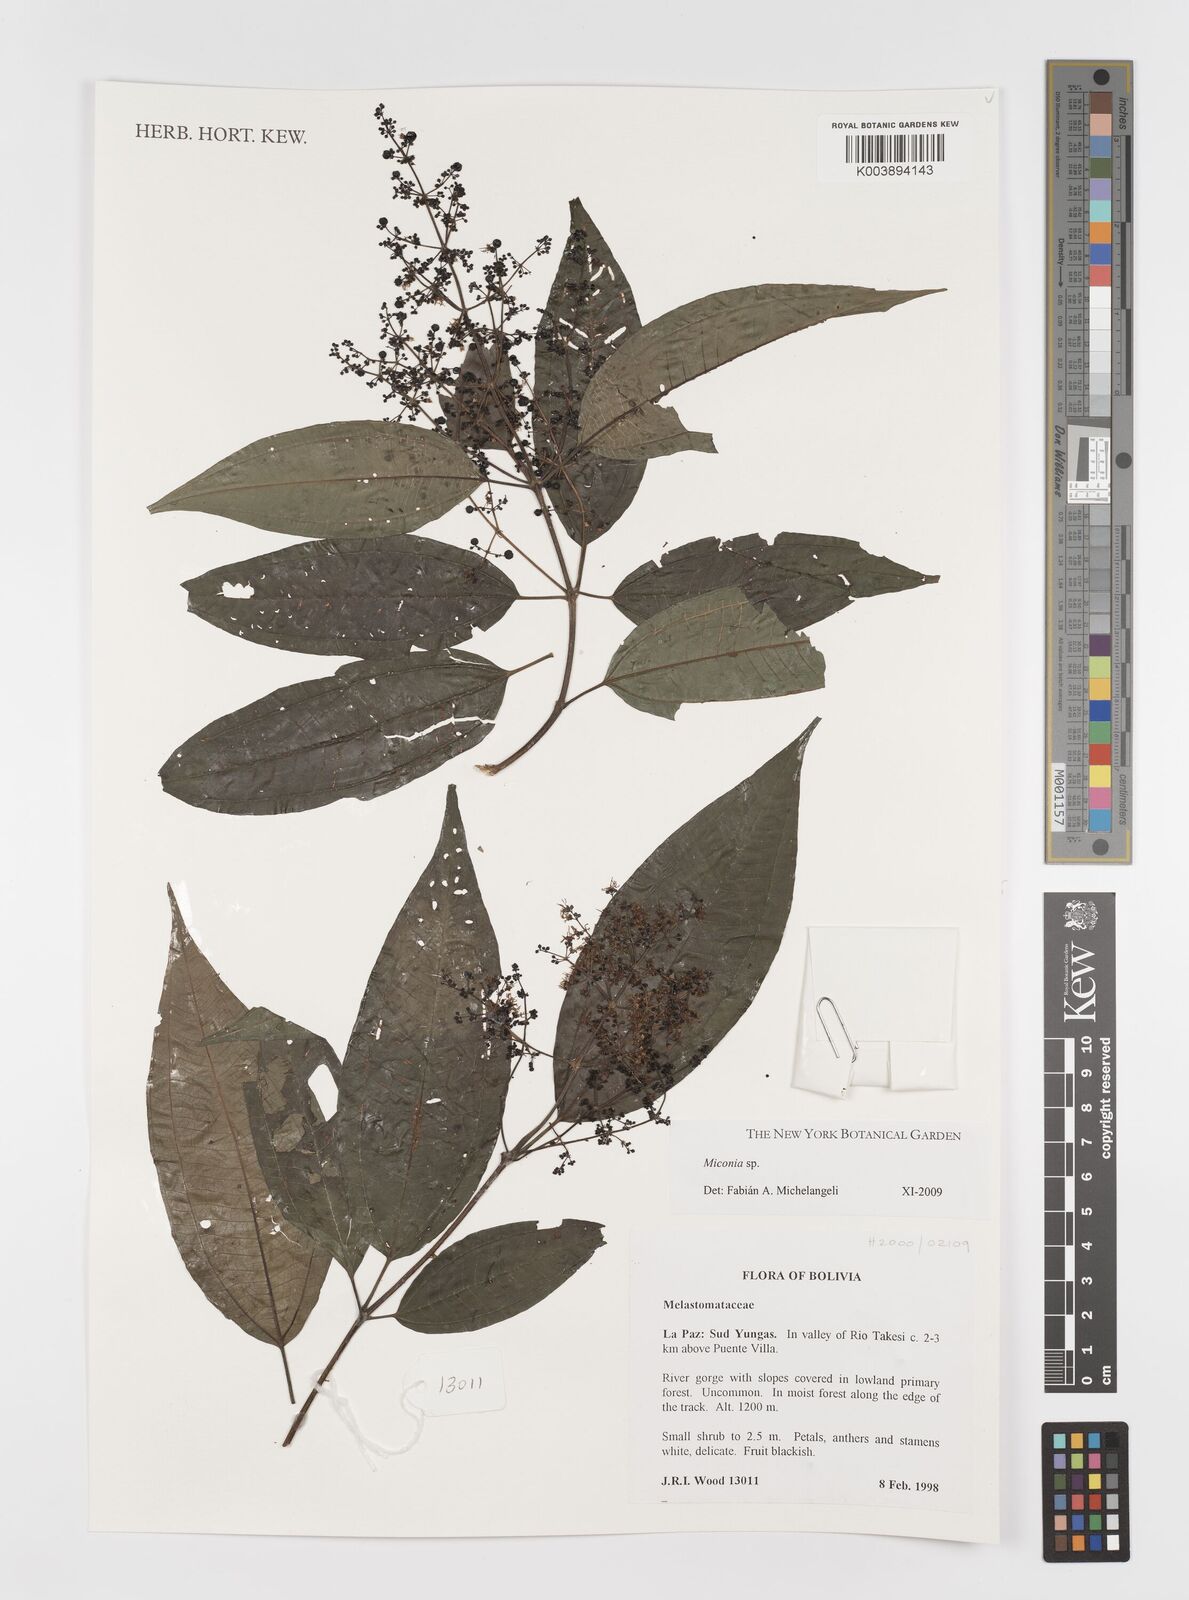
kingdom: Plantae
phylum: Tracheophyta
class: Magnoliopsida
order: Myrtales
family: Melastomataceae
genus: Miconia
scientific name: Miconia
